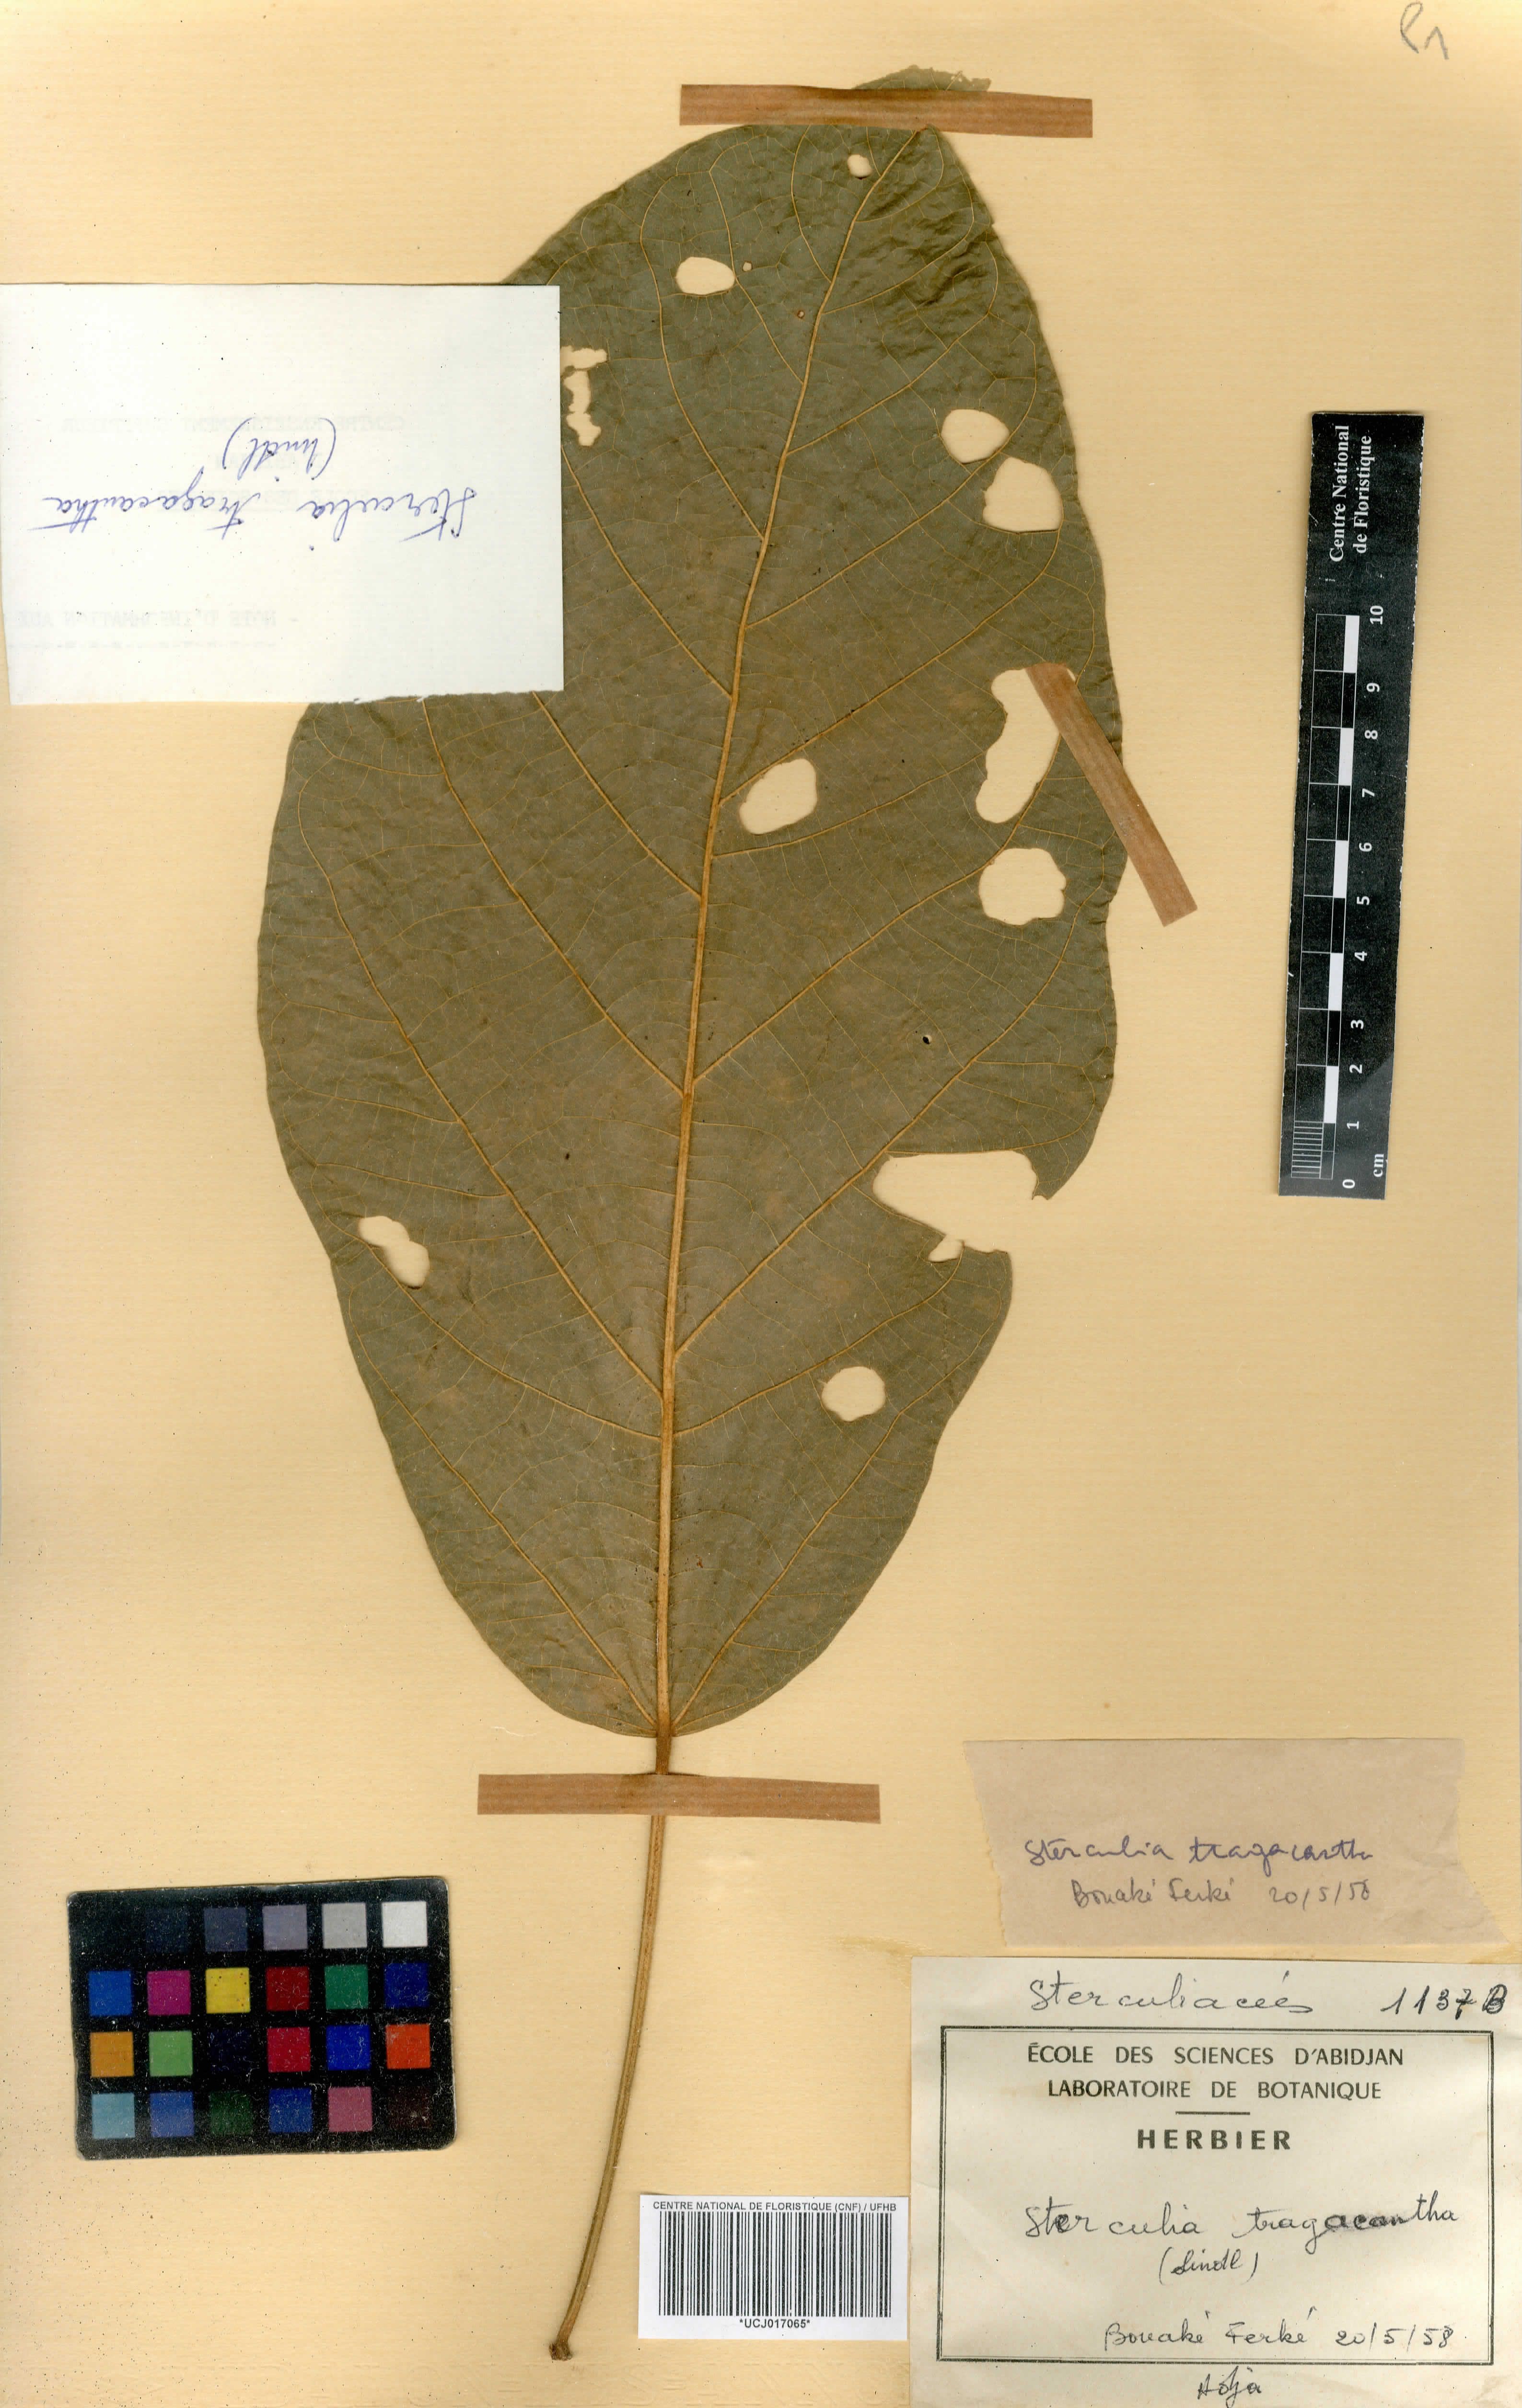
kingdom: Plantae
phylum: Tracheophyta
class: Magnoliopsida
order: Malvales
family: Malvaceae
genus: Sterculia
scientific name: Sterculia tragacantha
